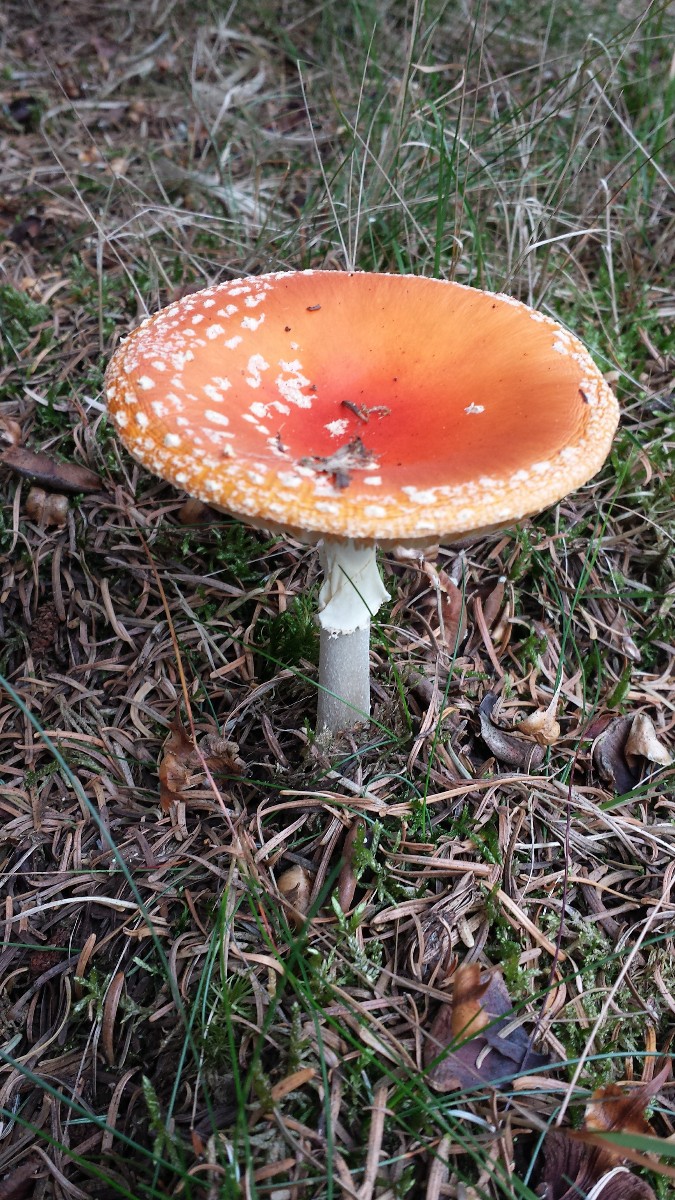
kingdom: Fungi
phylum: Basidiomycota
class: Agaricomycetes
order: Agaricales
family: Amanitaceae
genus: Amanita
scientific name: Amanita muscaria
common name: rød fluesvamp
